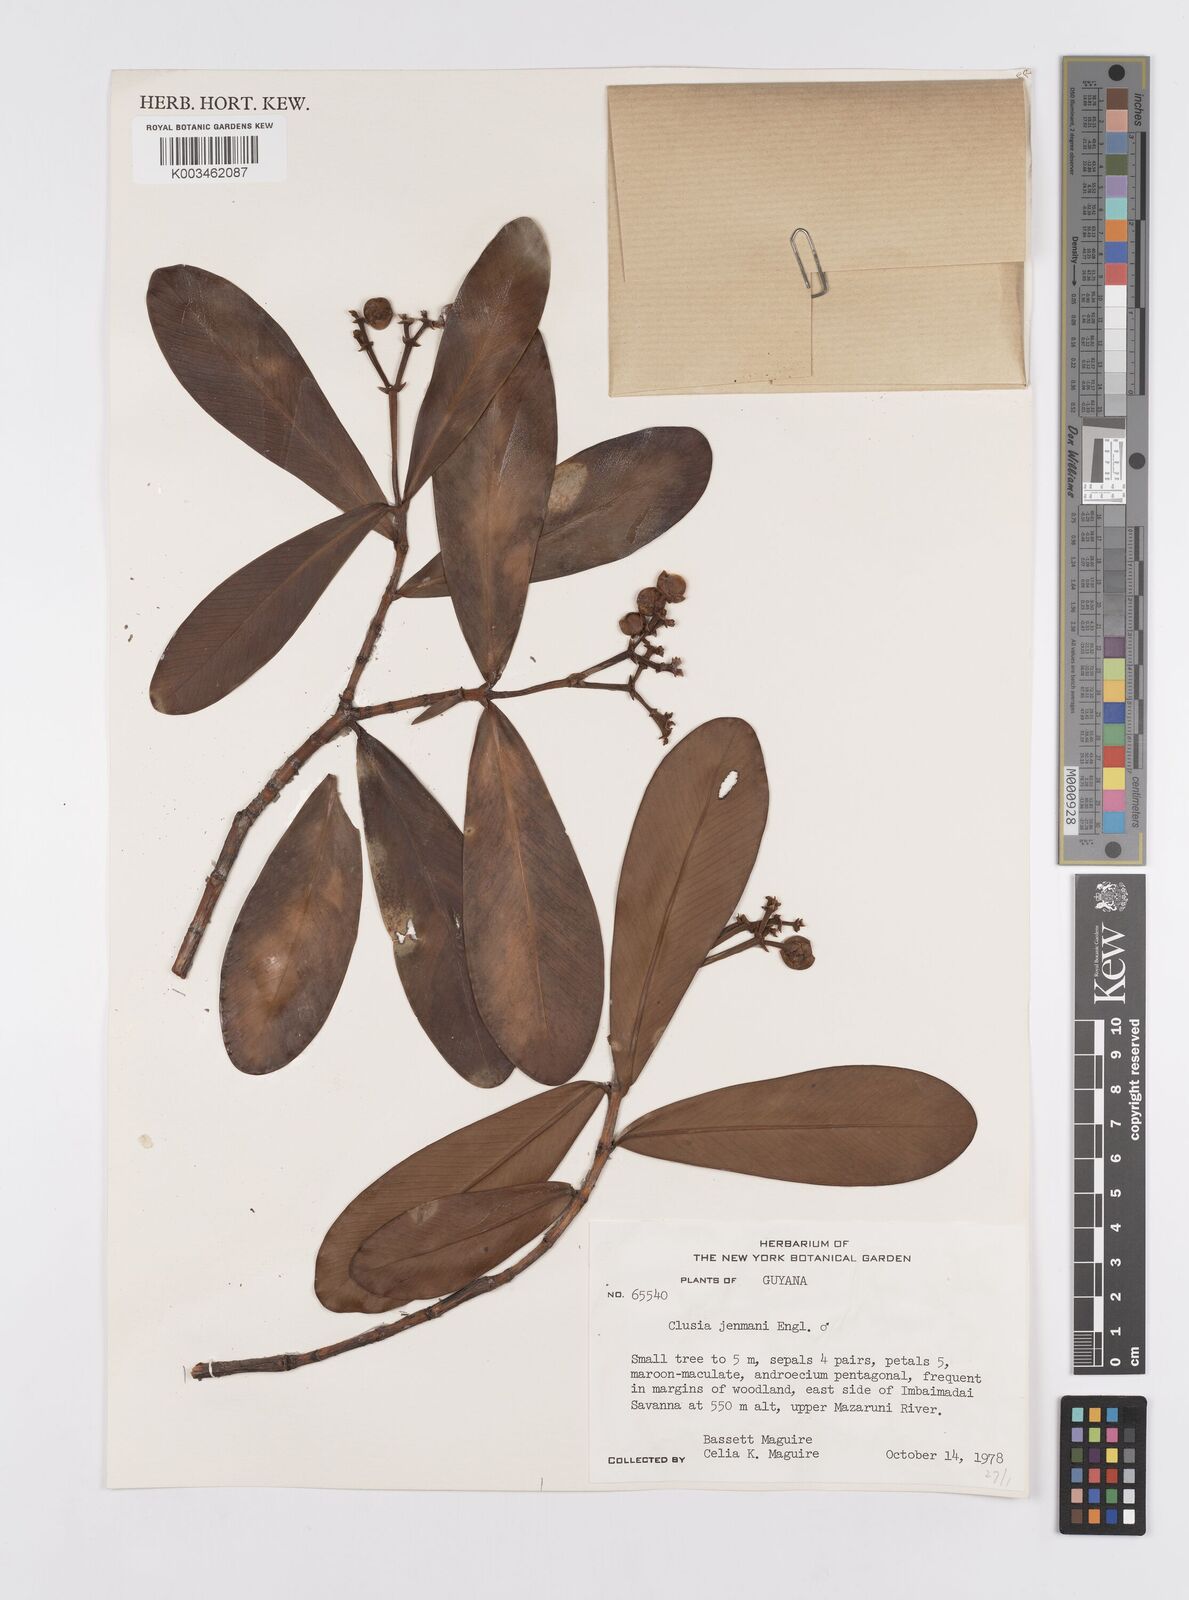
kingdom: Plantae
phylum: Tracheophyta
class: Magnoliopsida
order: Malpighiales
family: Clusiaceae
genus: Clusia
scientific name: Clusia myriandra
